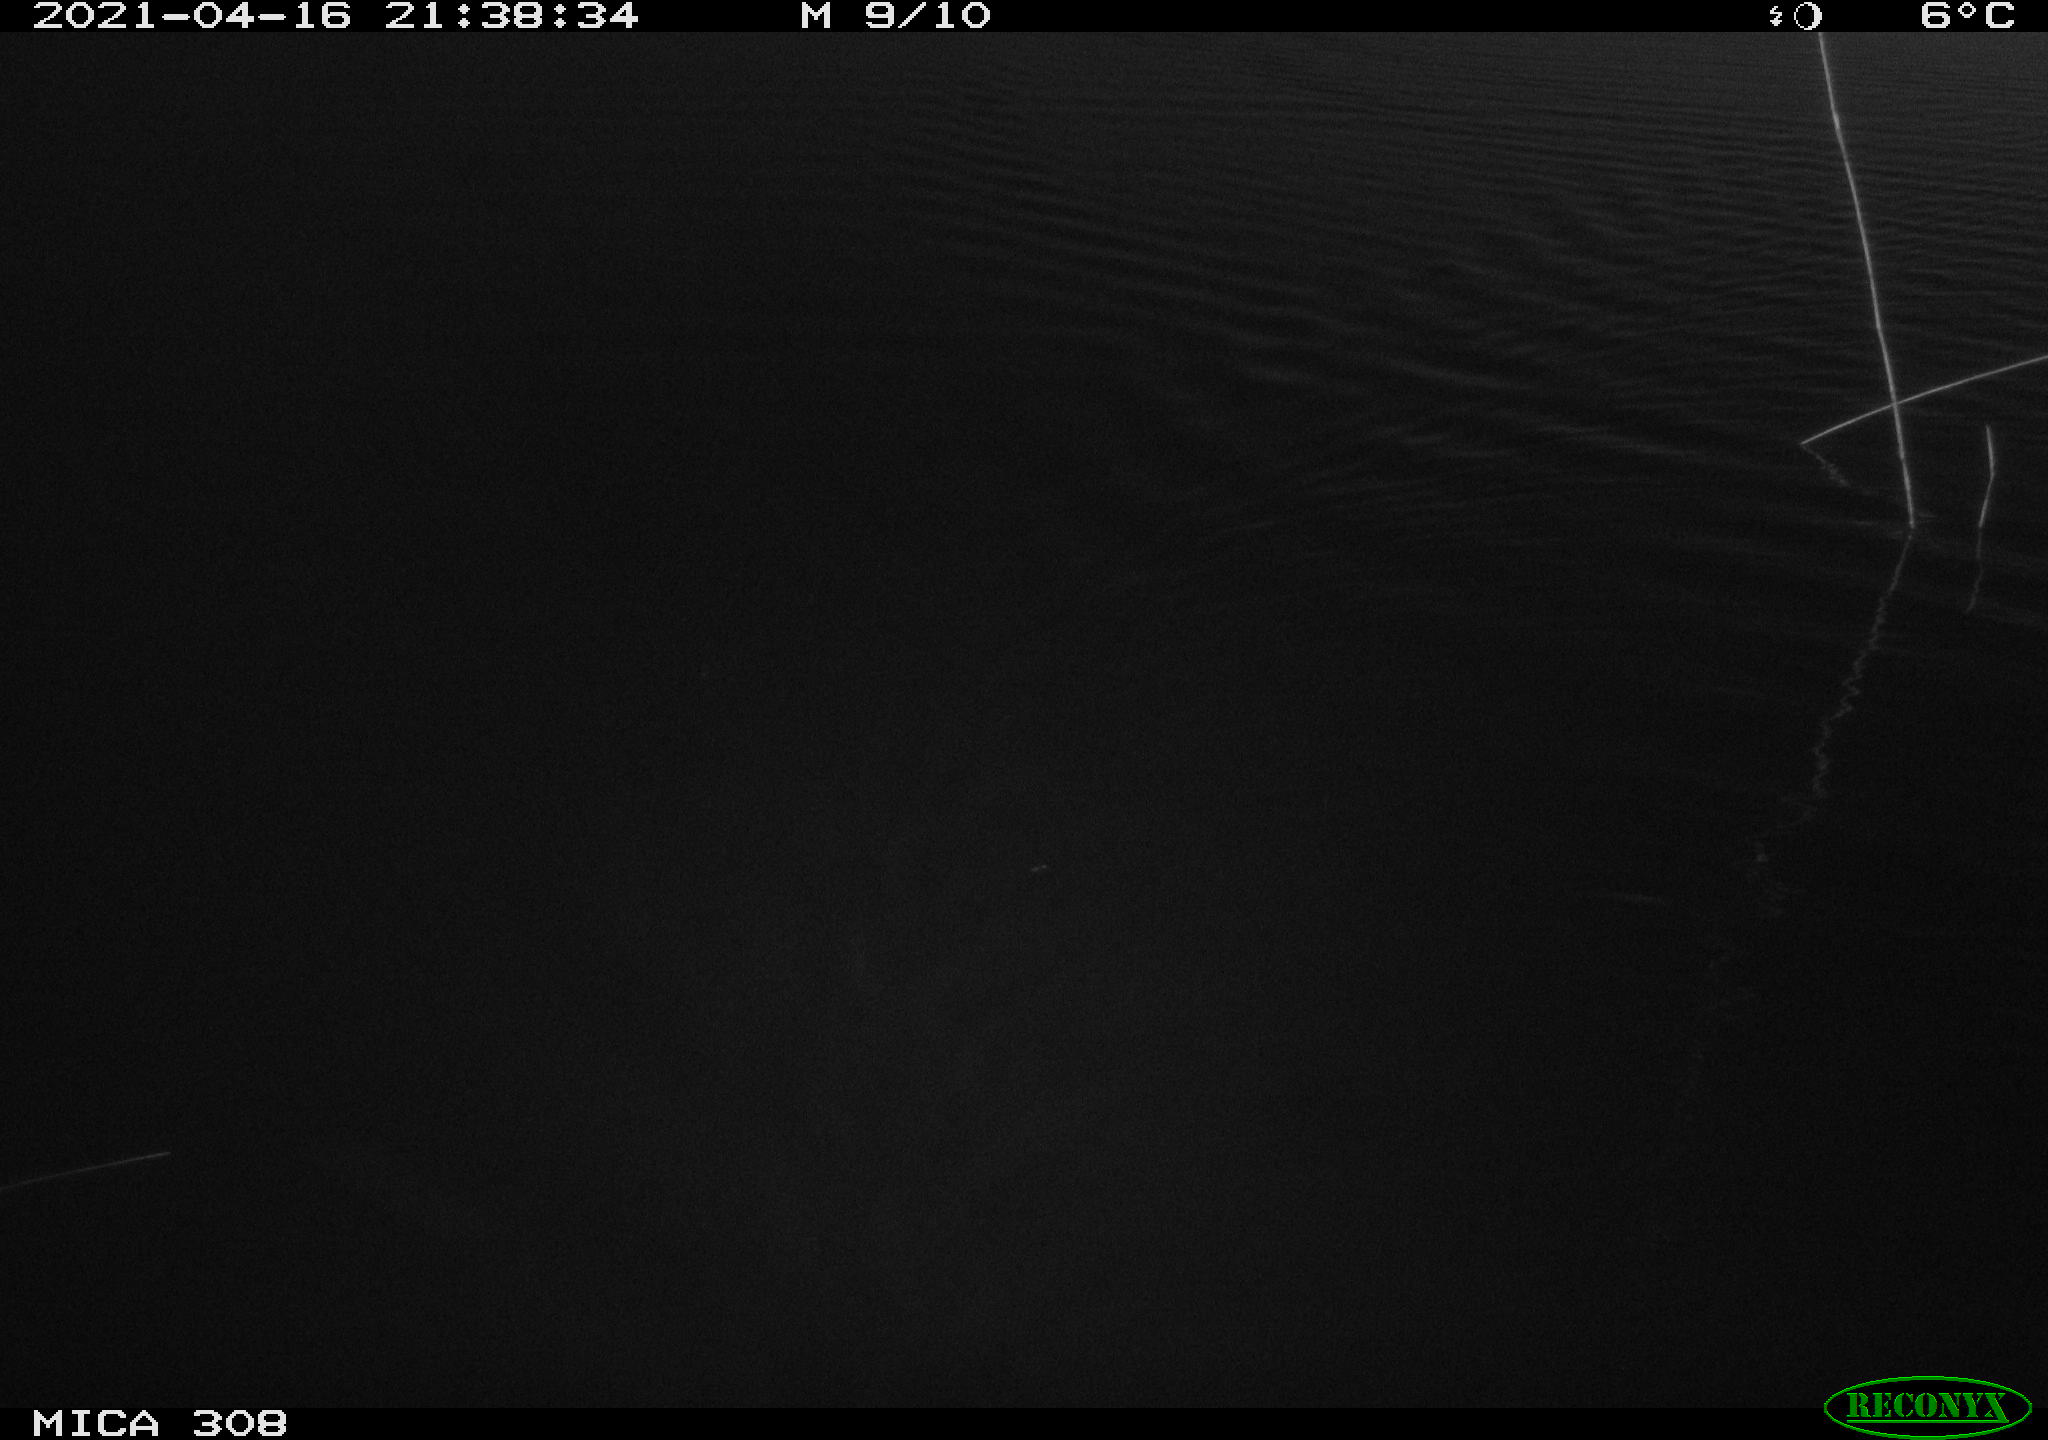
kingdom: Animalia
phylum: Chordata
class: Mammalia
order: Rodentia
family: Cricetidae
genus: Ondatra
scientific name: Ondatra zibethicus
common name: Muskrat
